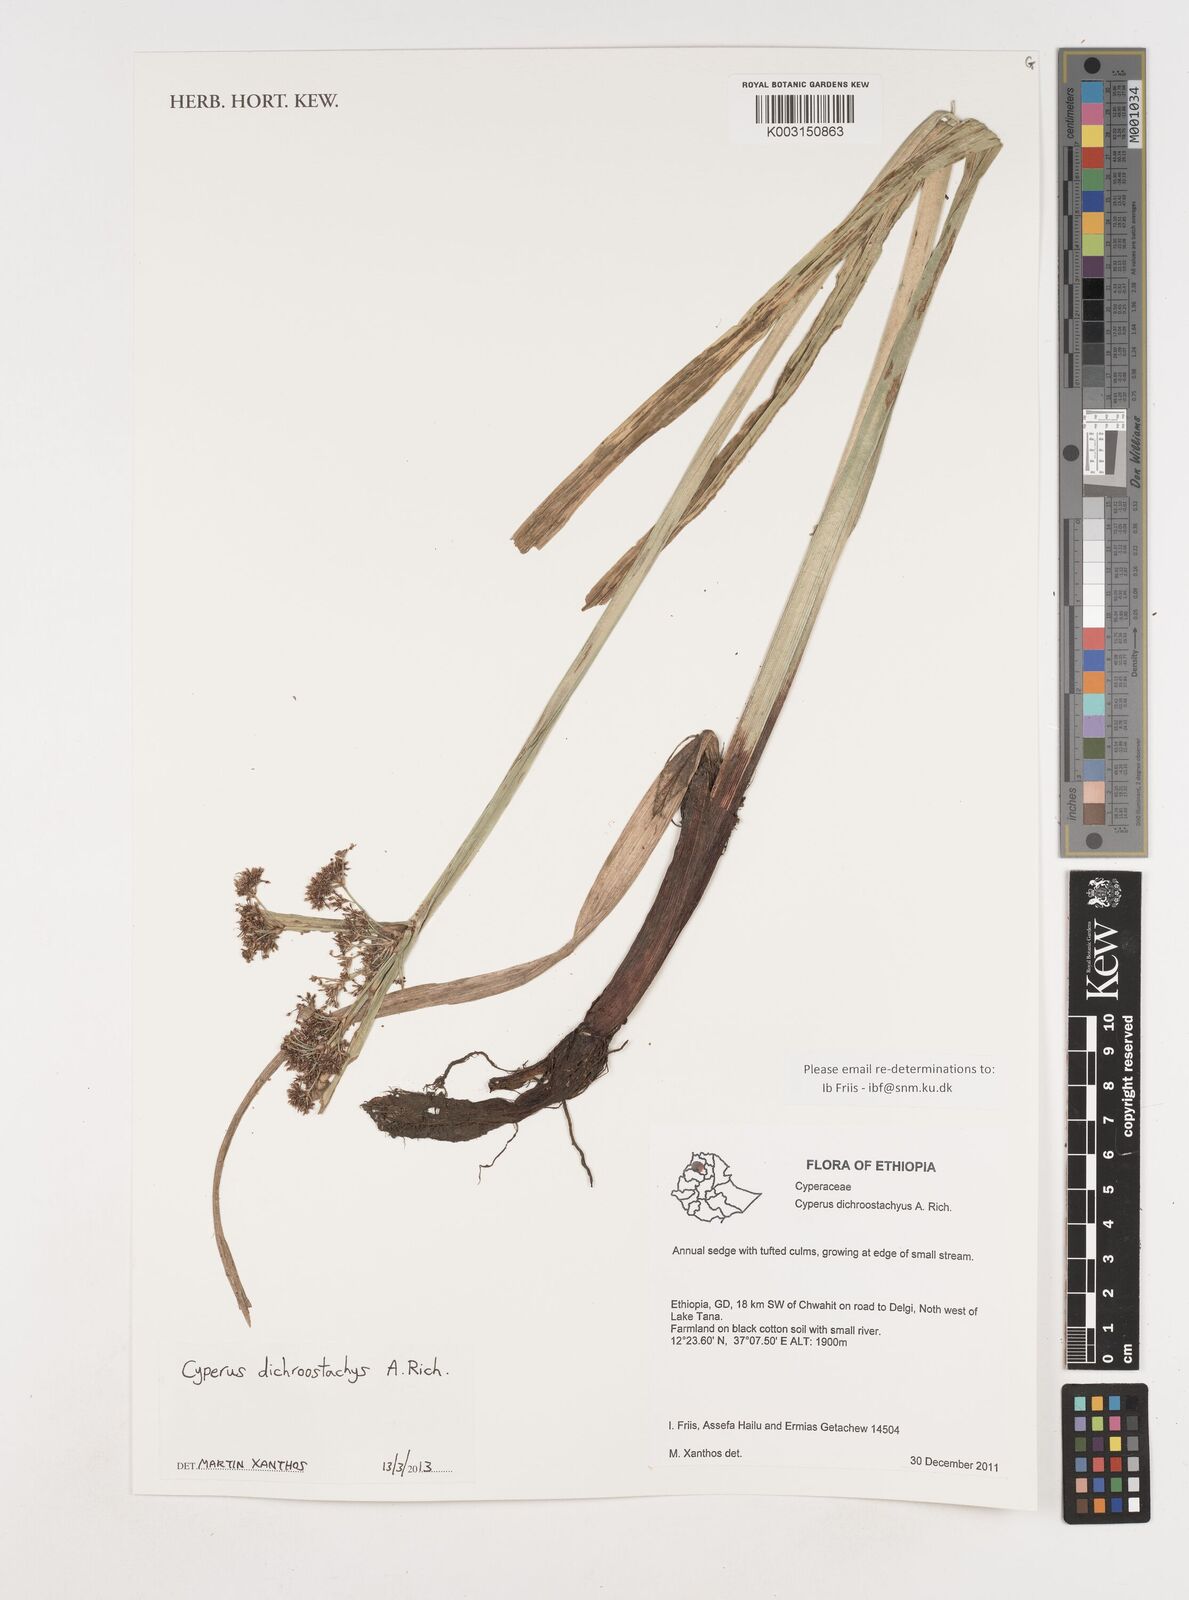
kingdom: Plantae
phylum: Tracheophyta
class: Liliopsida
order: Poales
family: Cyperaceae
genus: Cyperus
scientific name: Cyperus dichrostachyus
